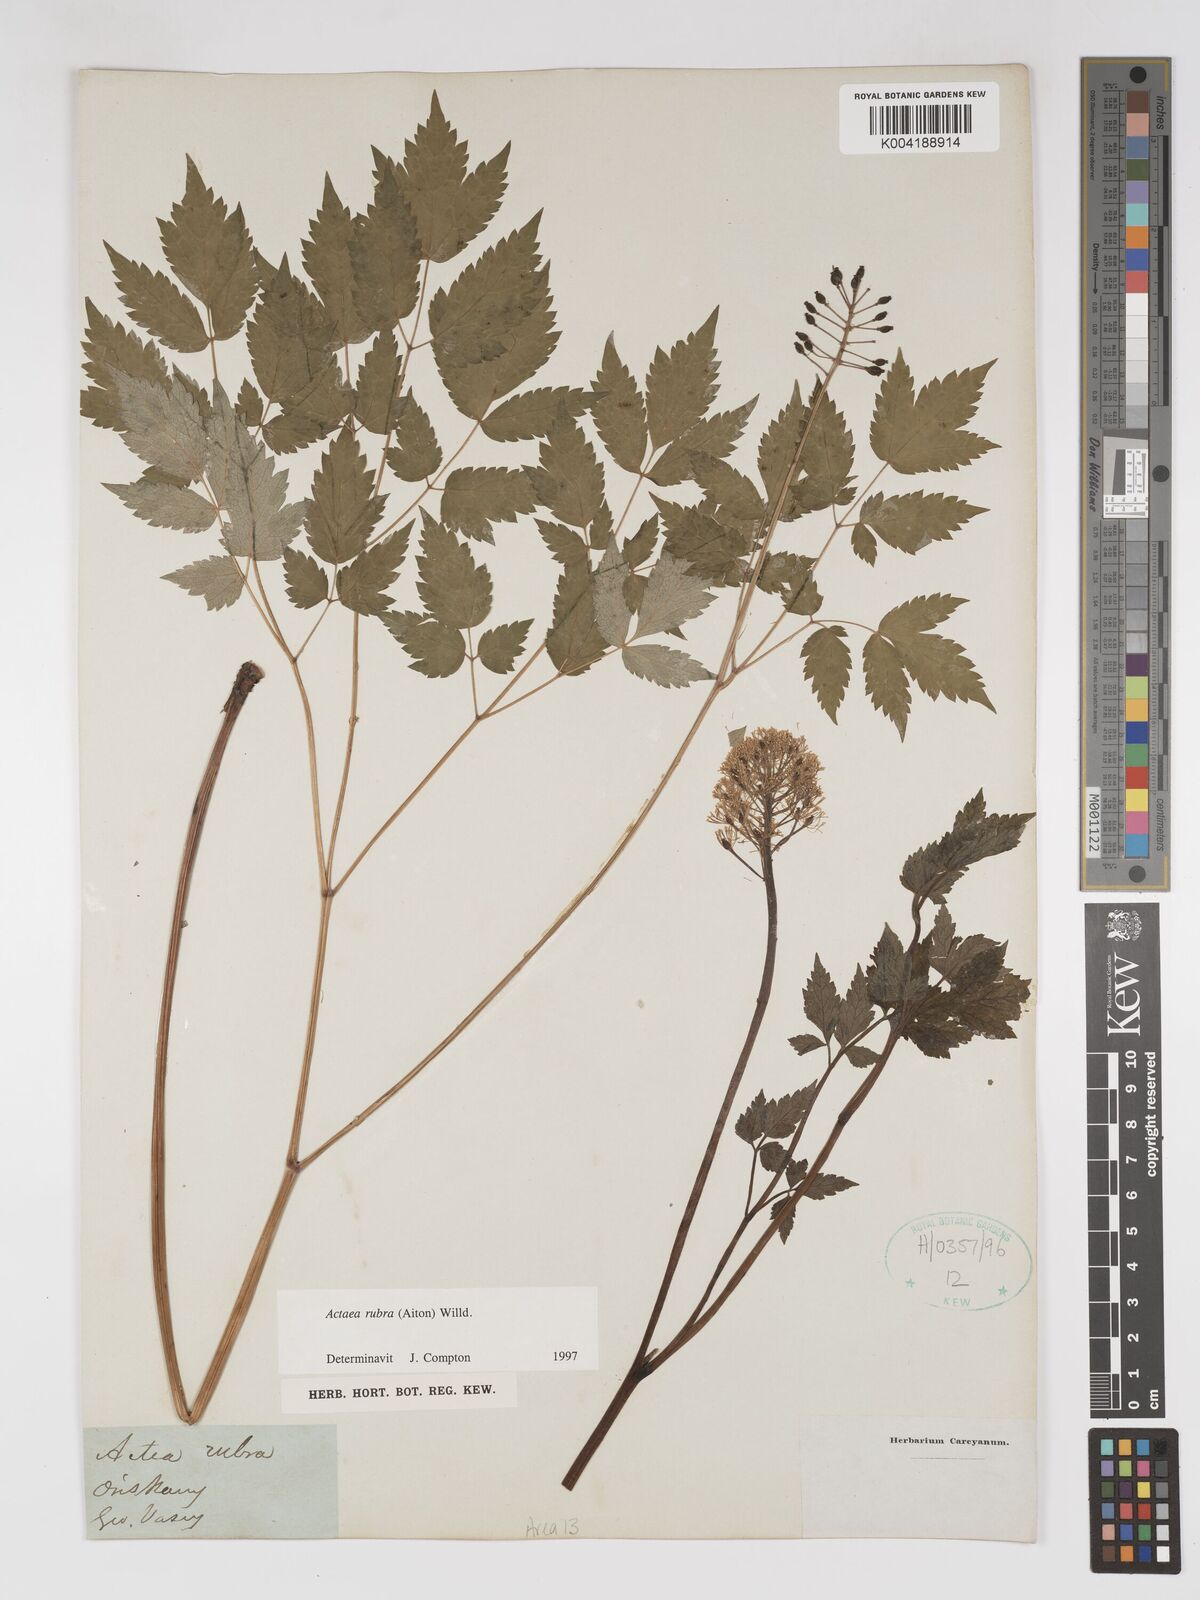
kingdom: Plantae
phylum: Tracheophyta
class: Magnoliopsida
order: Ranunculales
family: Ranunculaceae
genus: Actaea
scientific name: Actaea rubra
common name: Red baneberry
